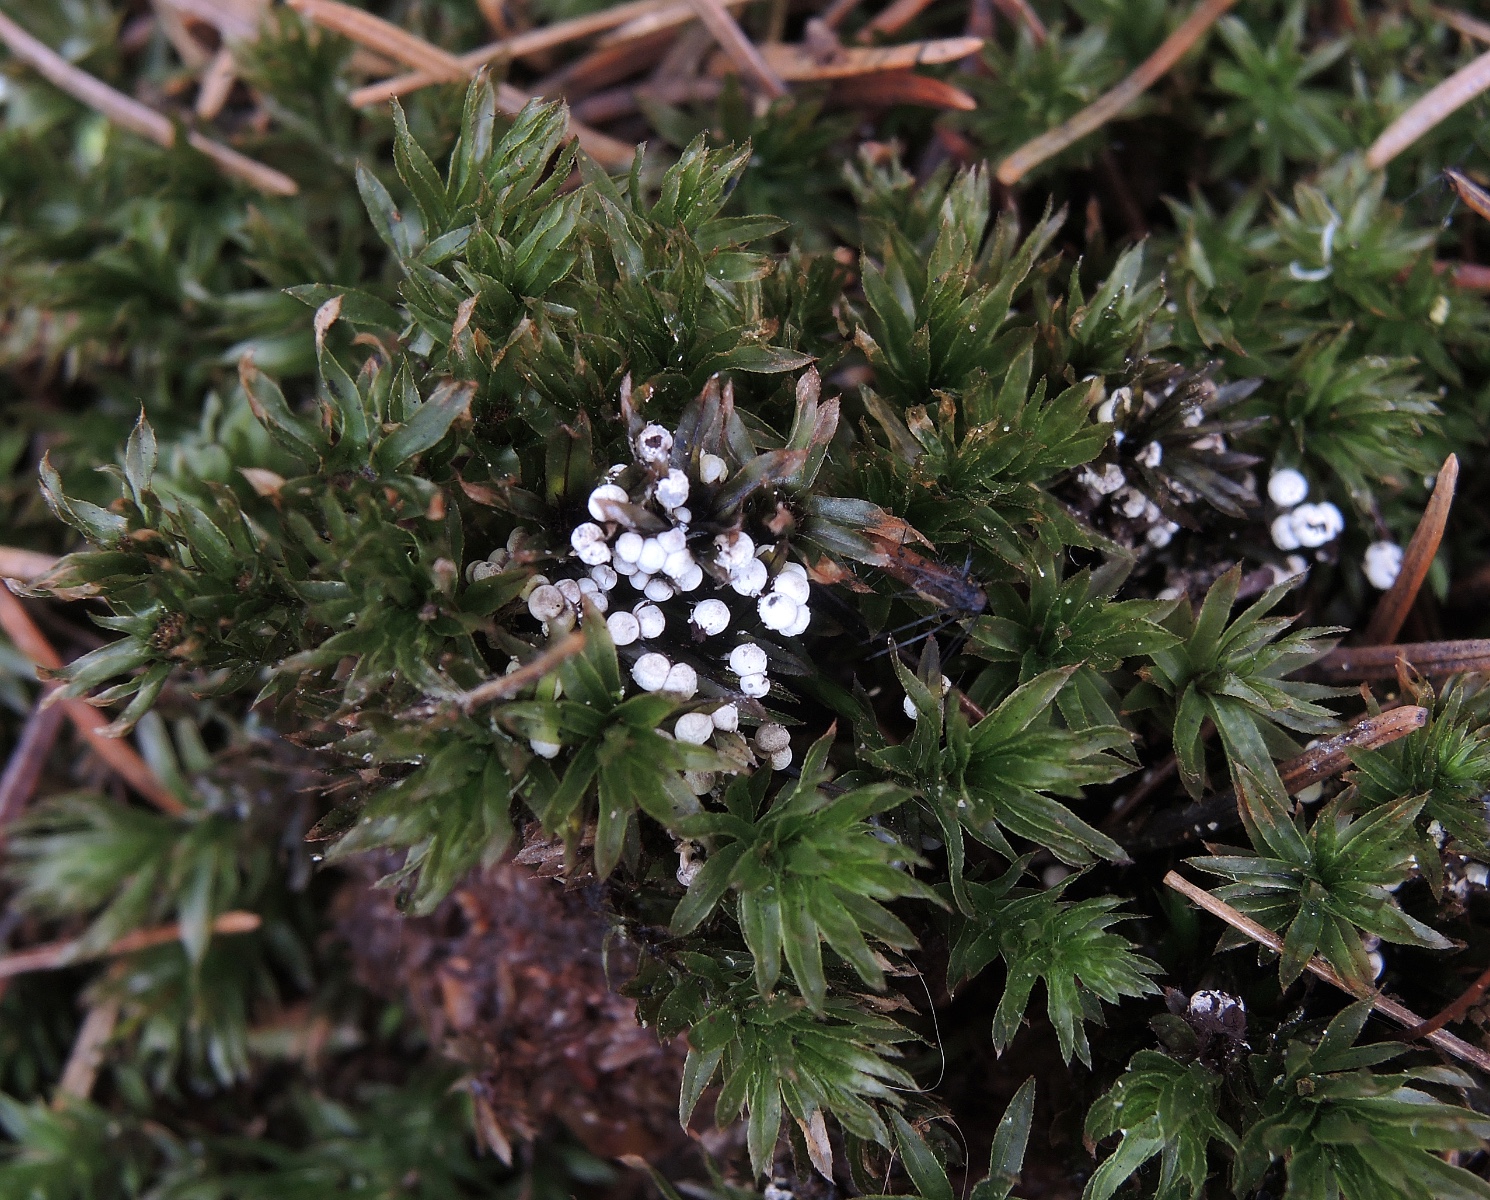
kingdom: Protozoa
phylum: Mycetozoa
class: Myxomycetes
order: Physarales
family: Didymiaceae
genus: Diderma
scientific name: Diderma montanum
